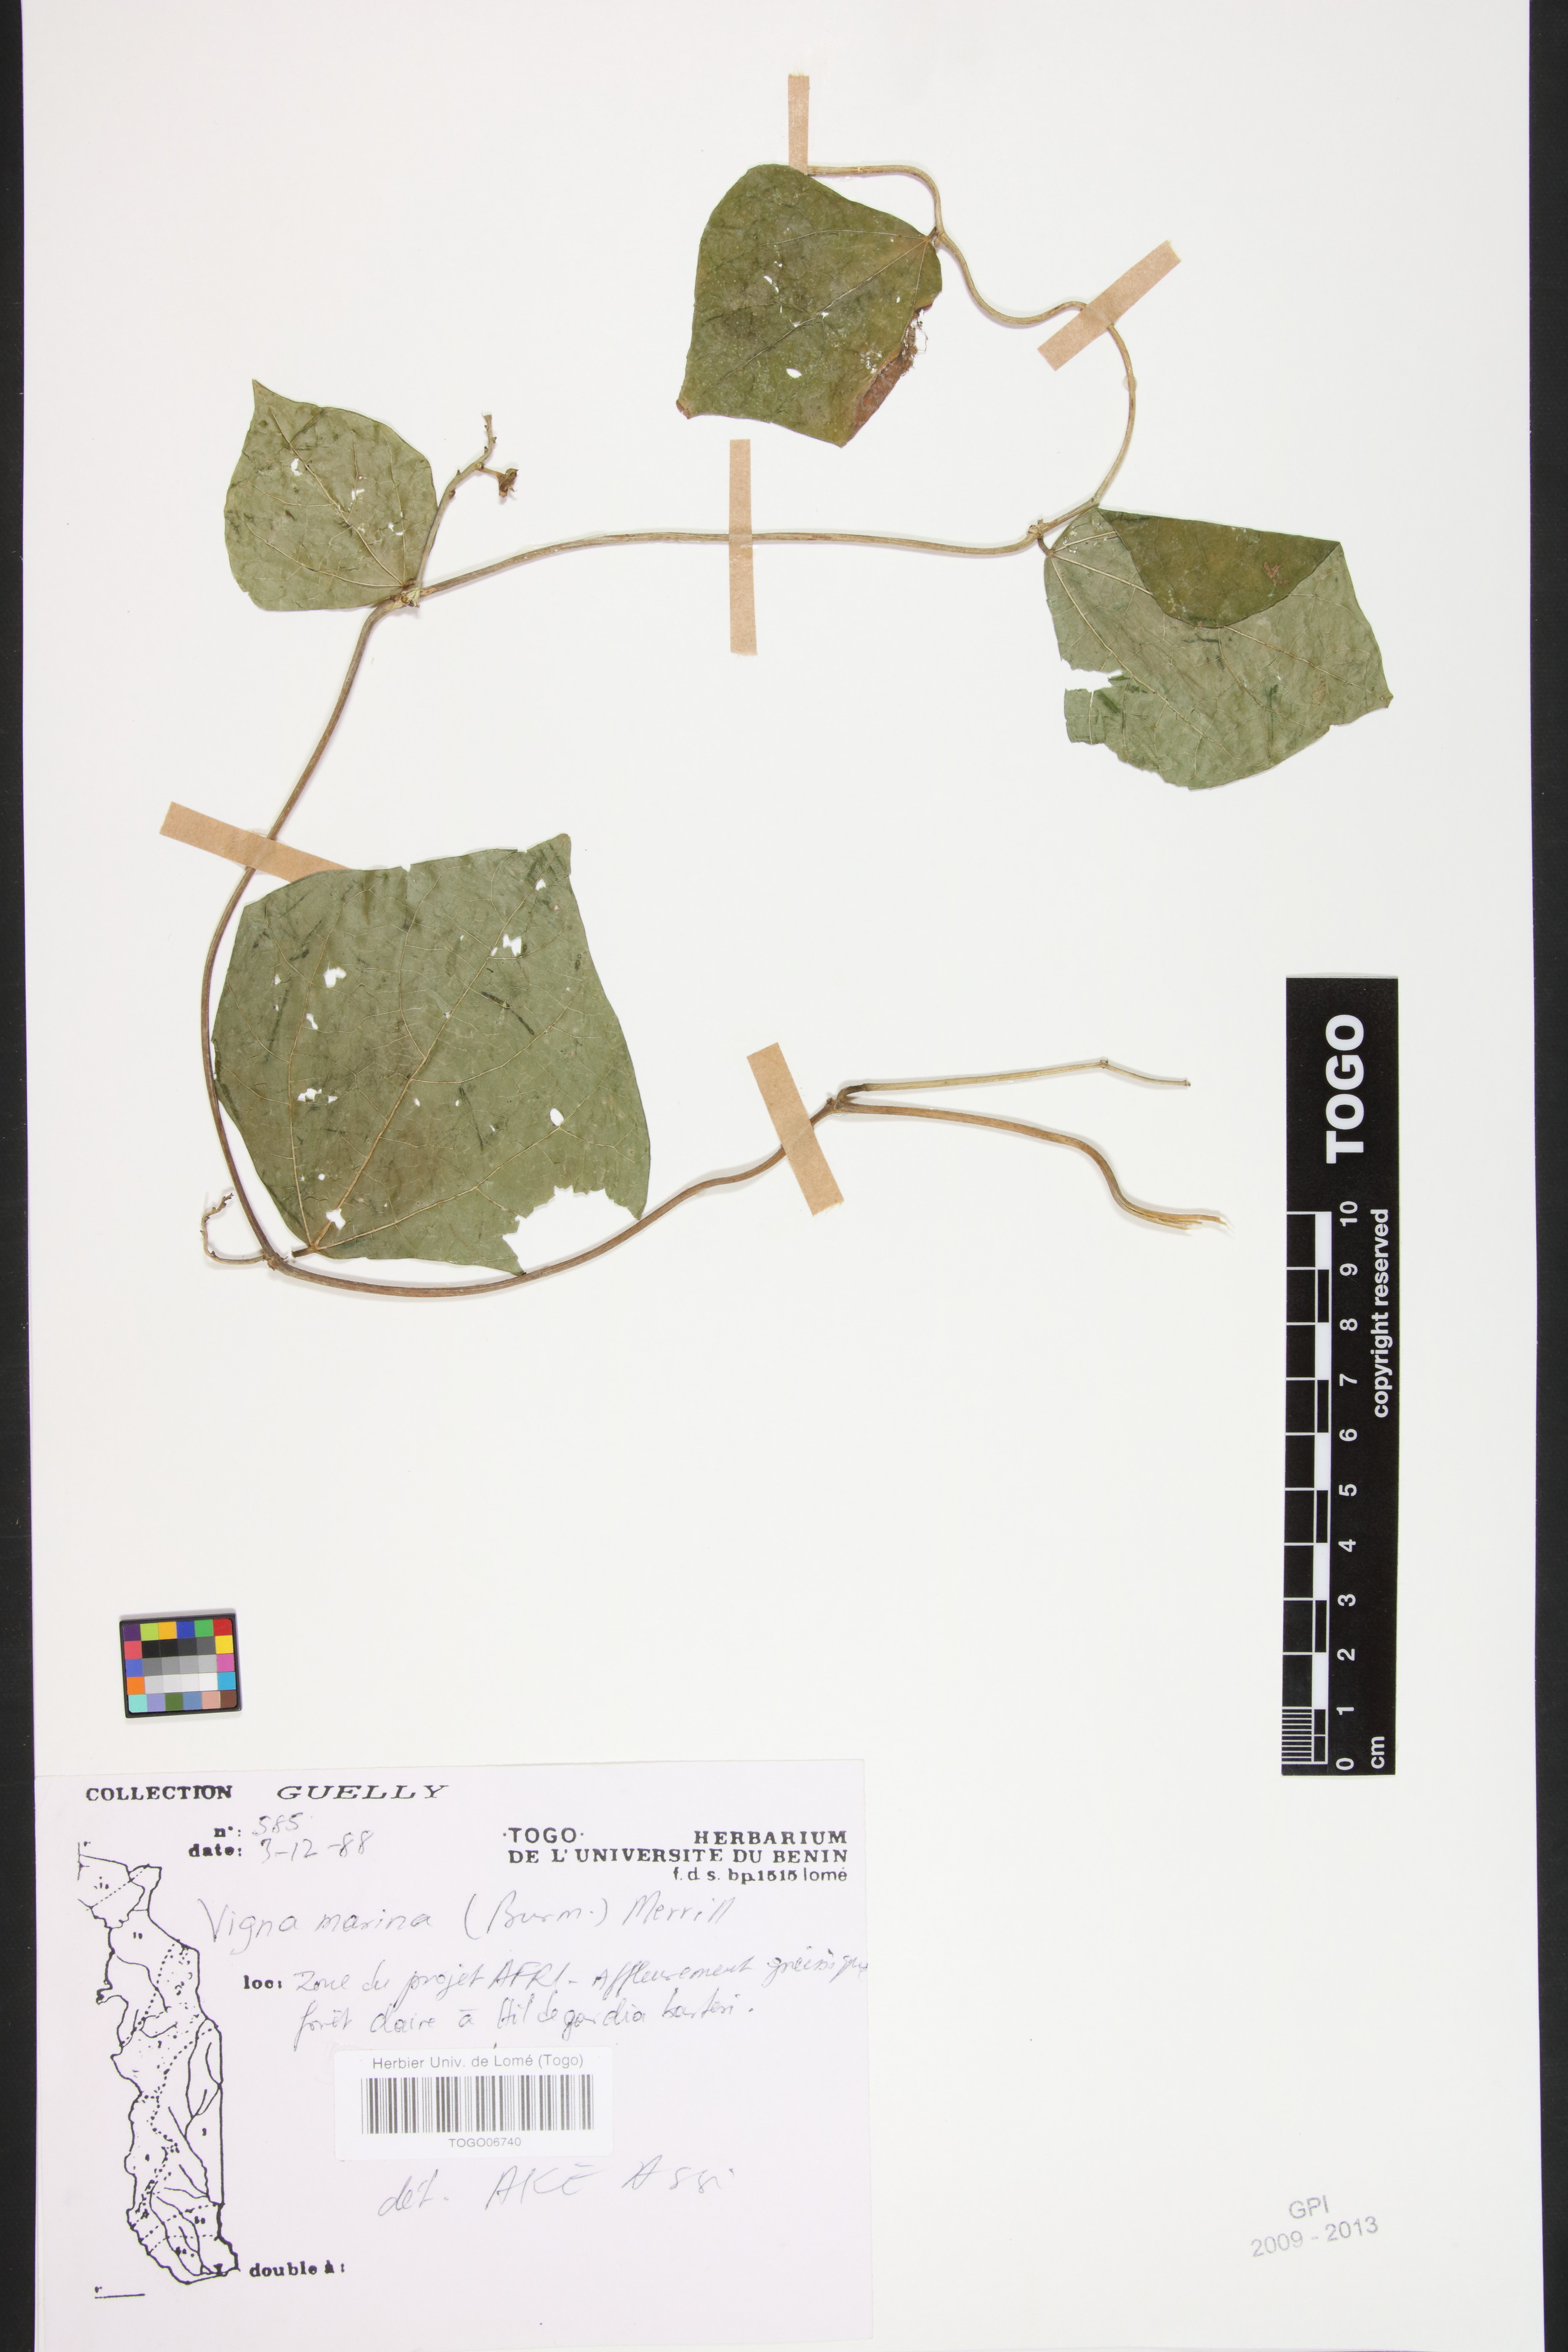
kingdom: Plantae
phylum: Tracheophyta
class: Magnoliopsida
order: Fabales
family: Fabaceae
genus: Vigna
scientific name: Vigna marina
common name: Dune-bean
